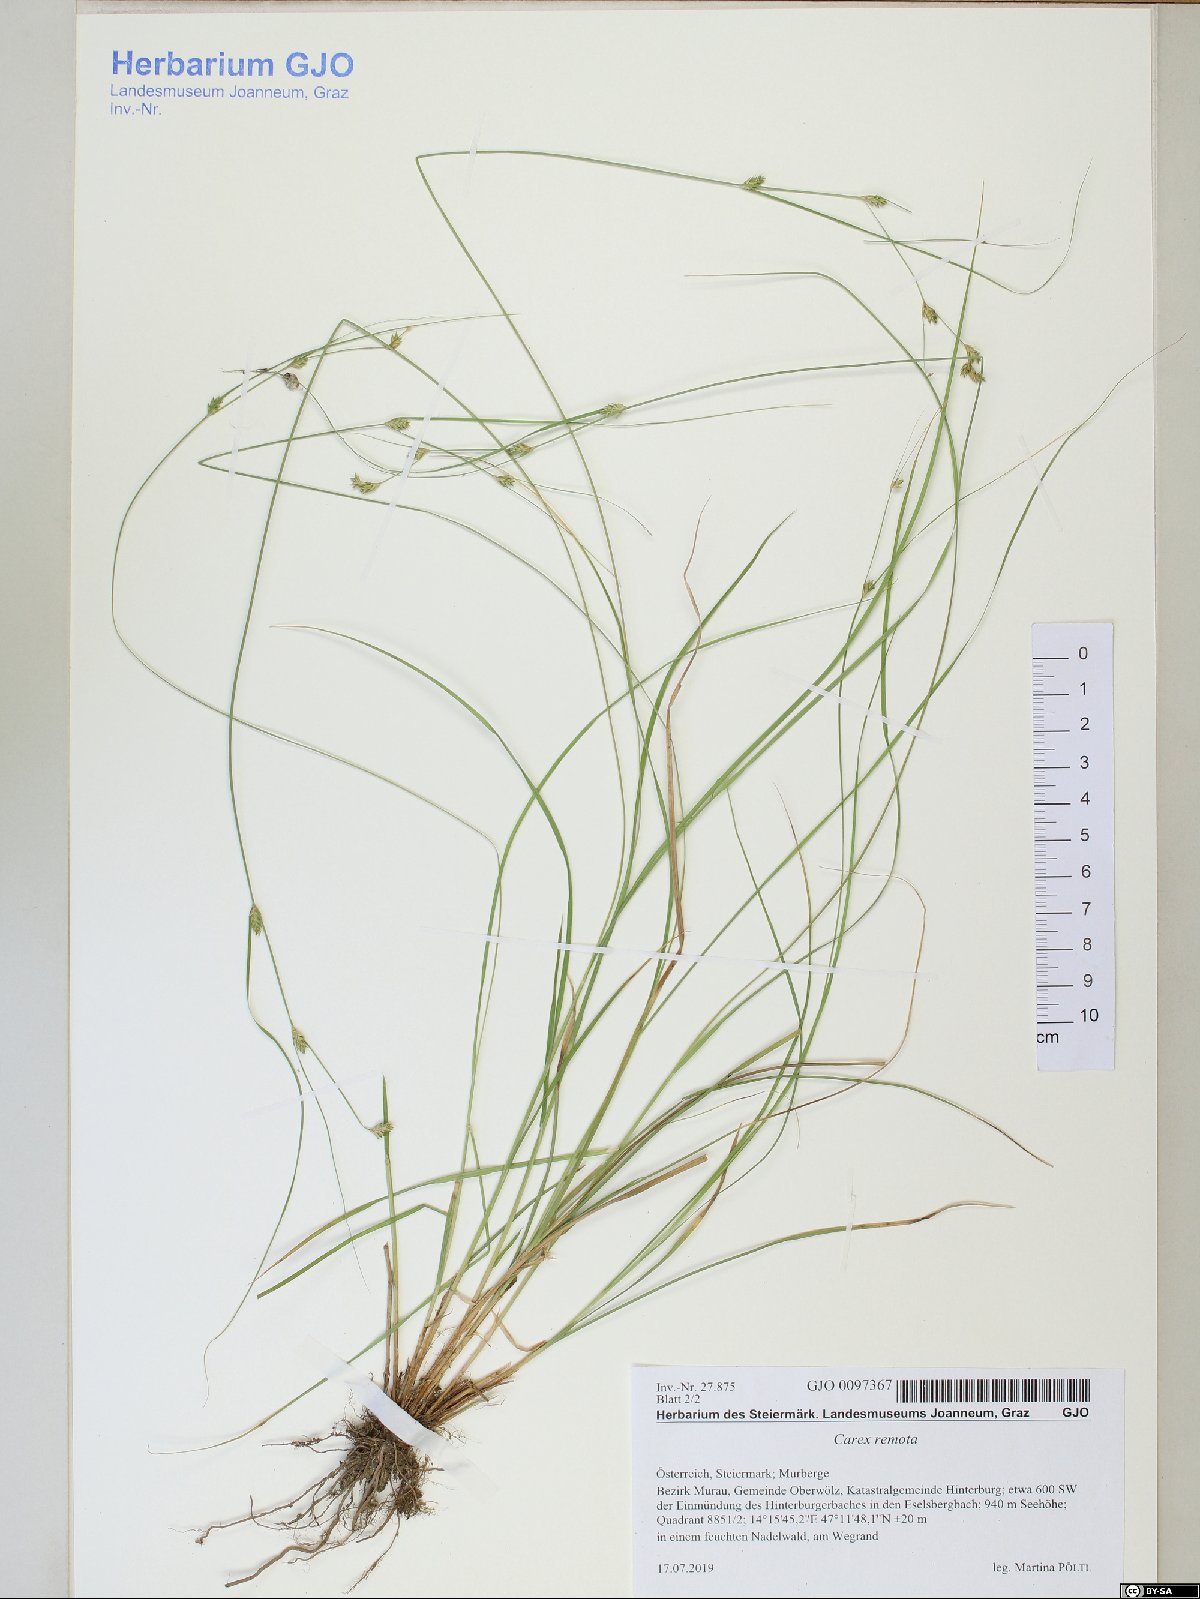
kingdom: Plantae
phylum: Tracheophyta
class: Liliopsida
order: Poales
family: Cyperaceae
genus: Carex
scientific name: Carex remota
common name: Remote sedge
